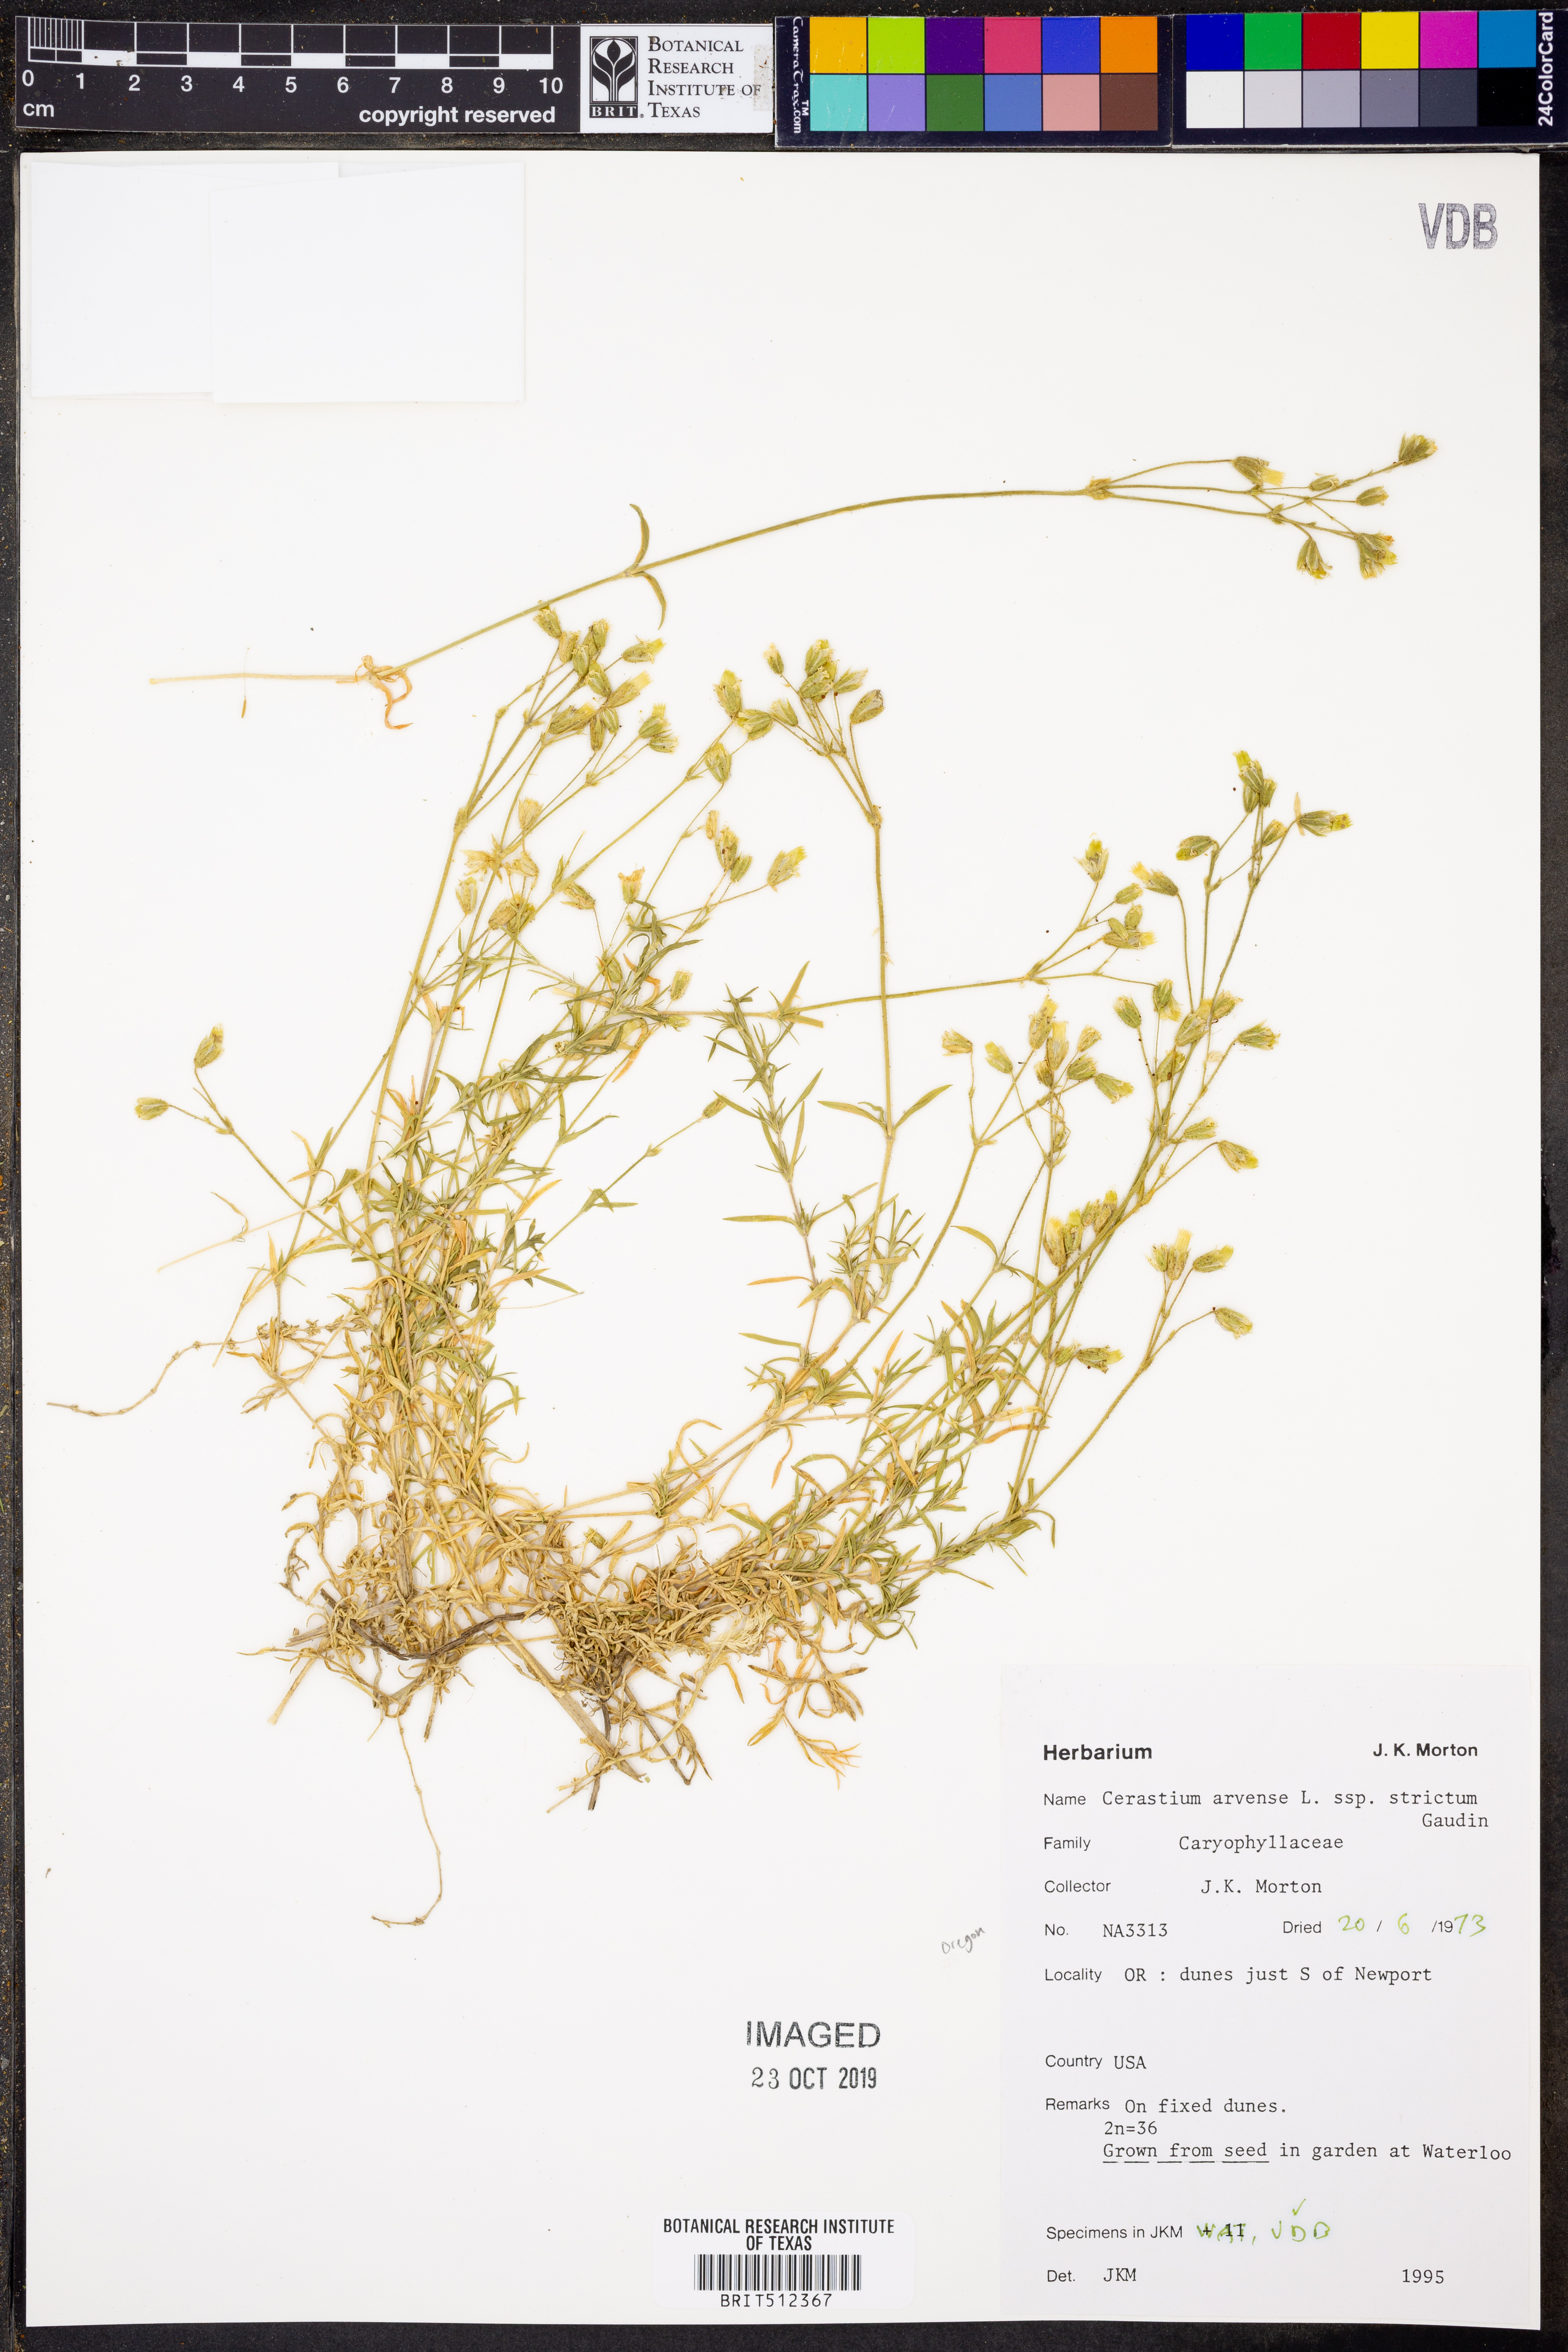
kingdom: Plantae
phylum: Tracheophyta
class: Magnoliopsida
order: Caryophyllales
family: Caryophyllaceae
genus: Cerastium
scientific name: Cerastium elongatum
